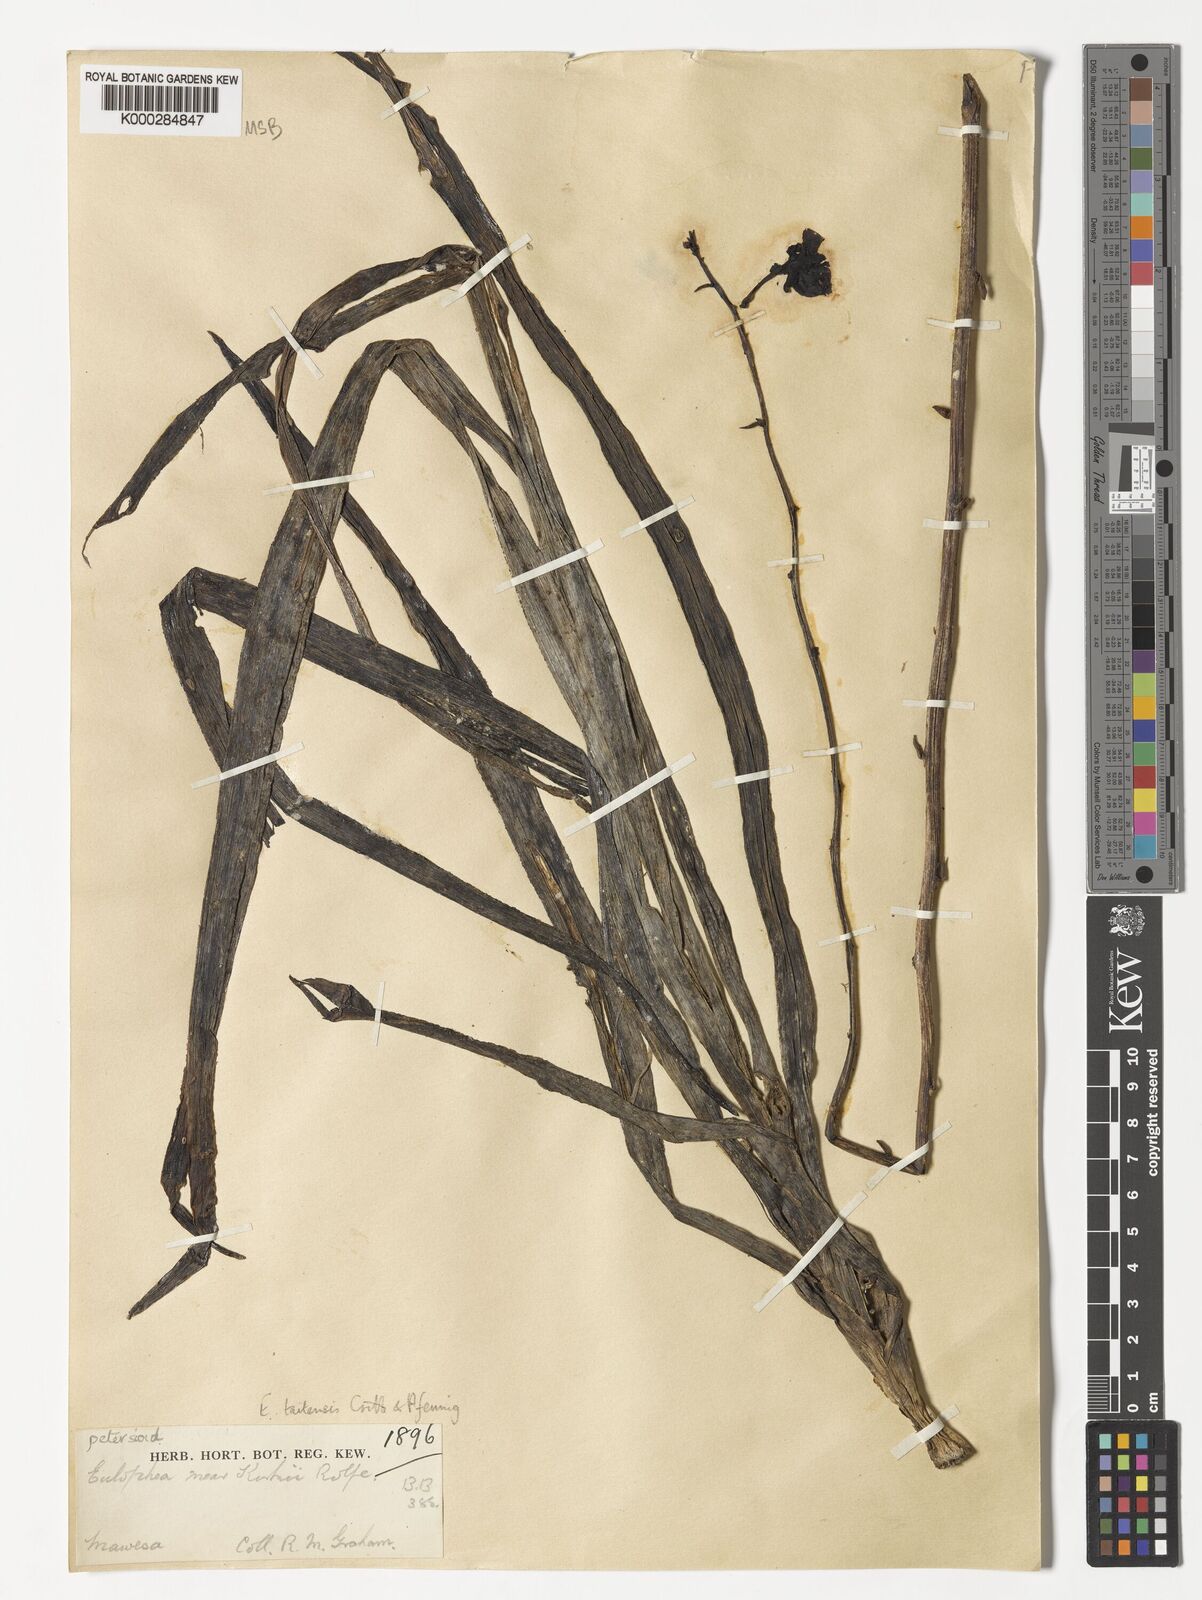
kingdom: Plantae
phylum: Tracheophyta
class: Liliopsida
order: Asparagales
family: Orchidaceae
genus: Eulophia
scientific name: Eulophia taitensis
